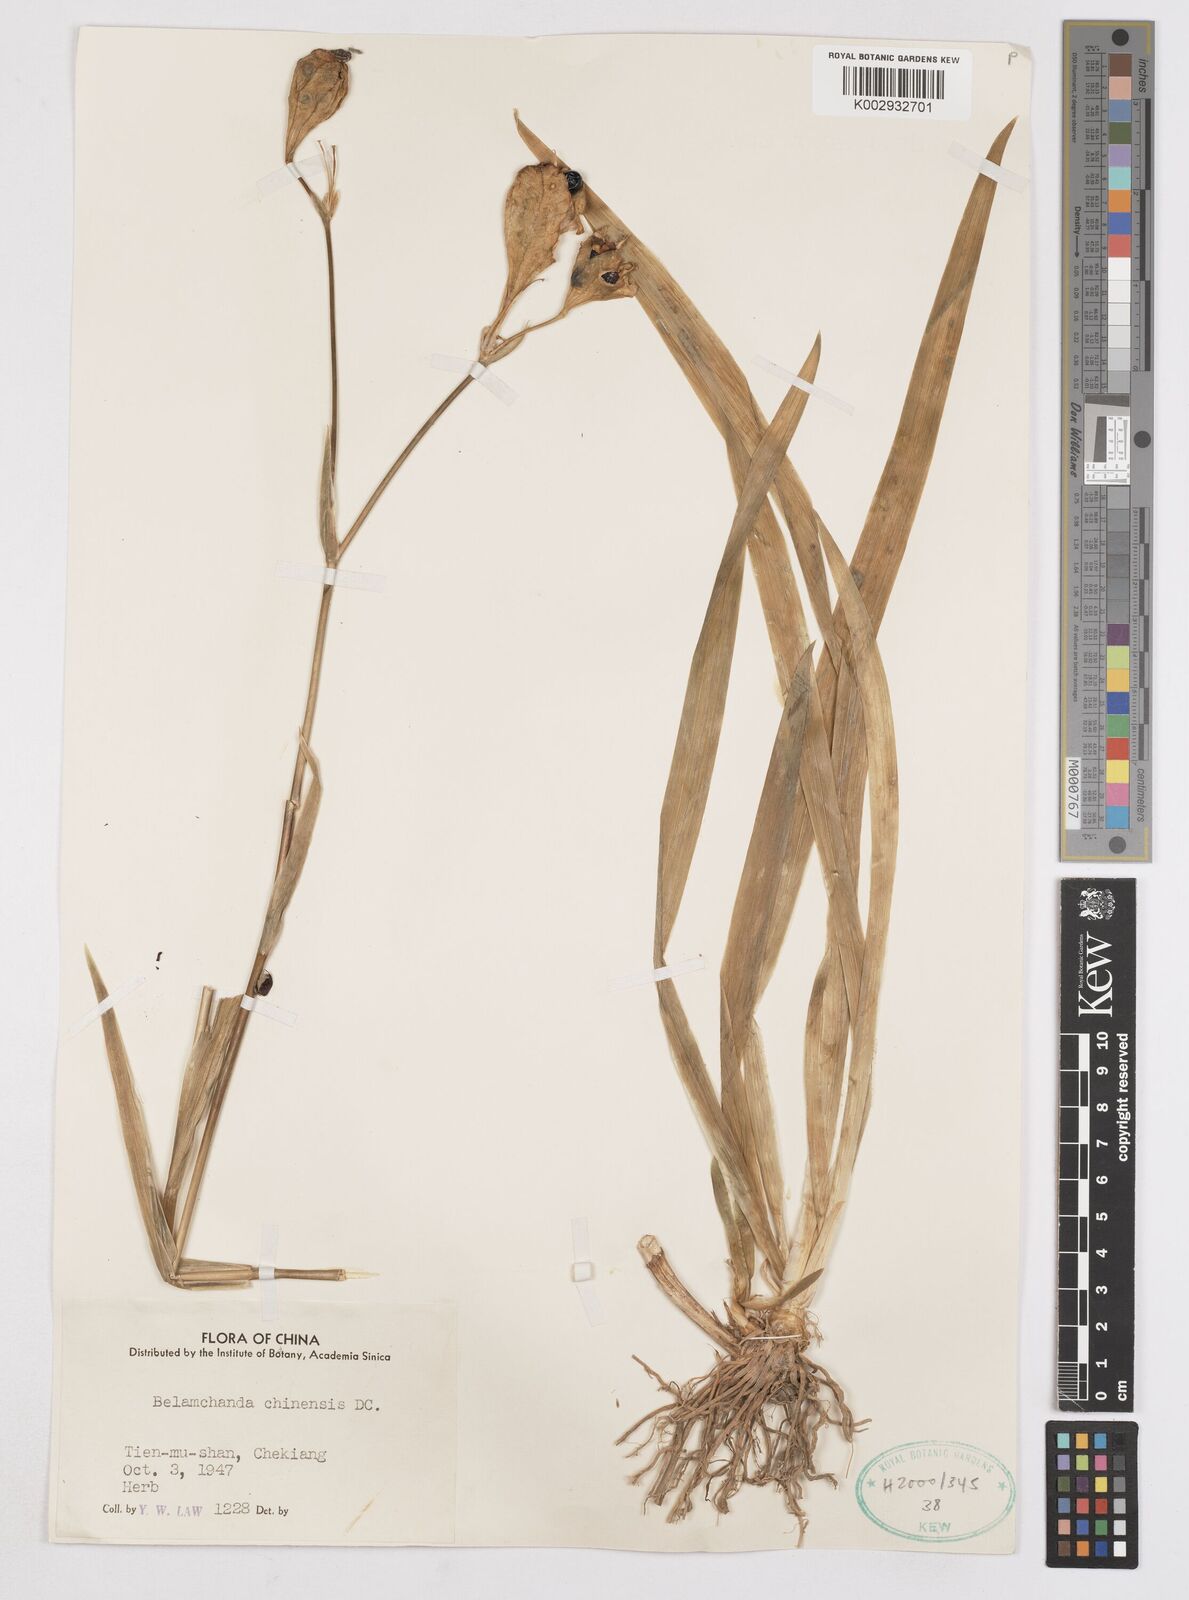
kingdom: Plantae
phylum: Tracheophyta
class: Liliopsida
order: Asparagales
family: Iridaceae
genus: Iris
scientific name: Iris
